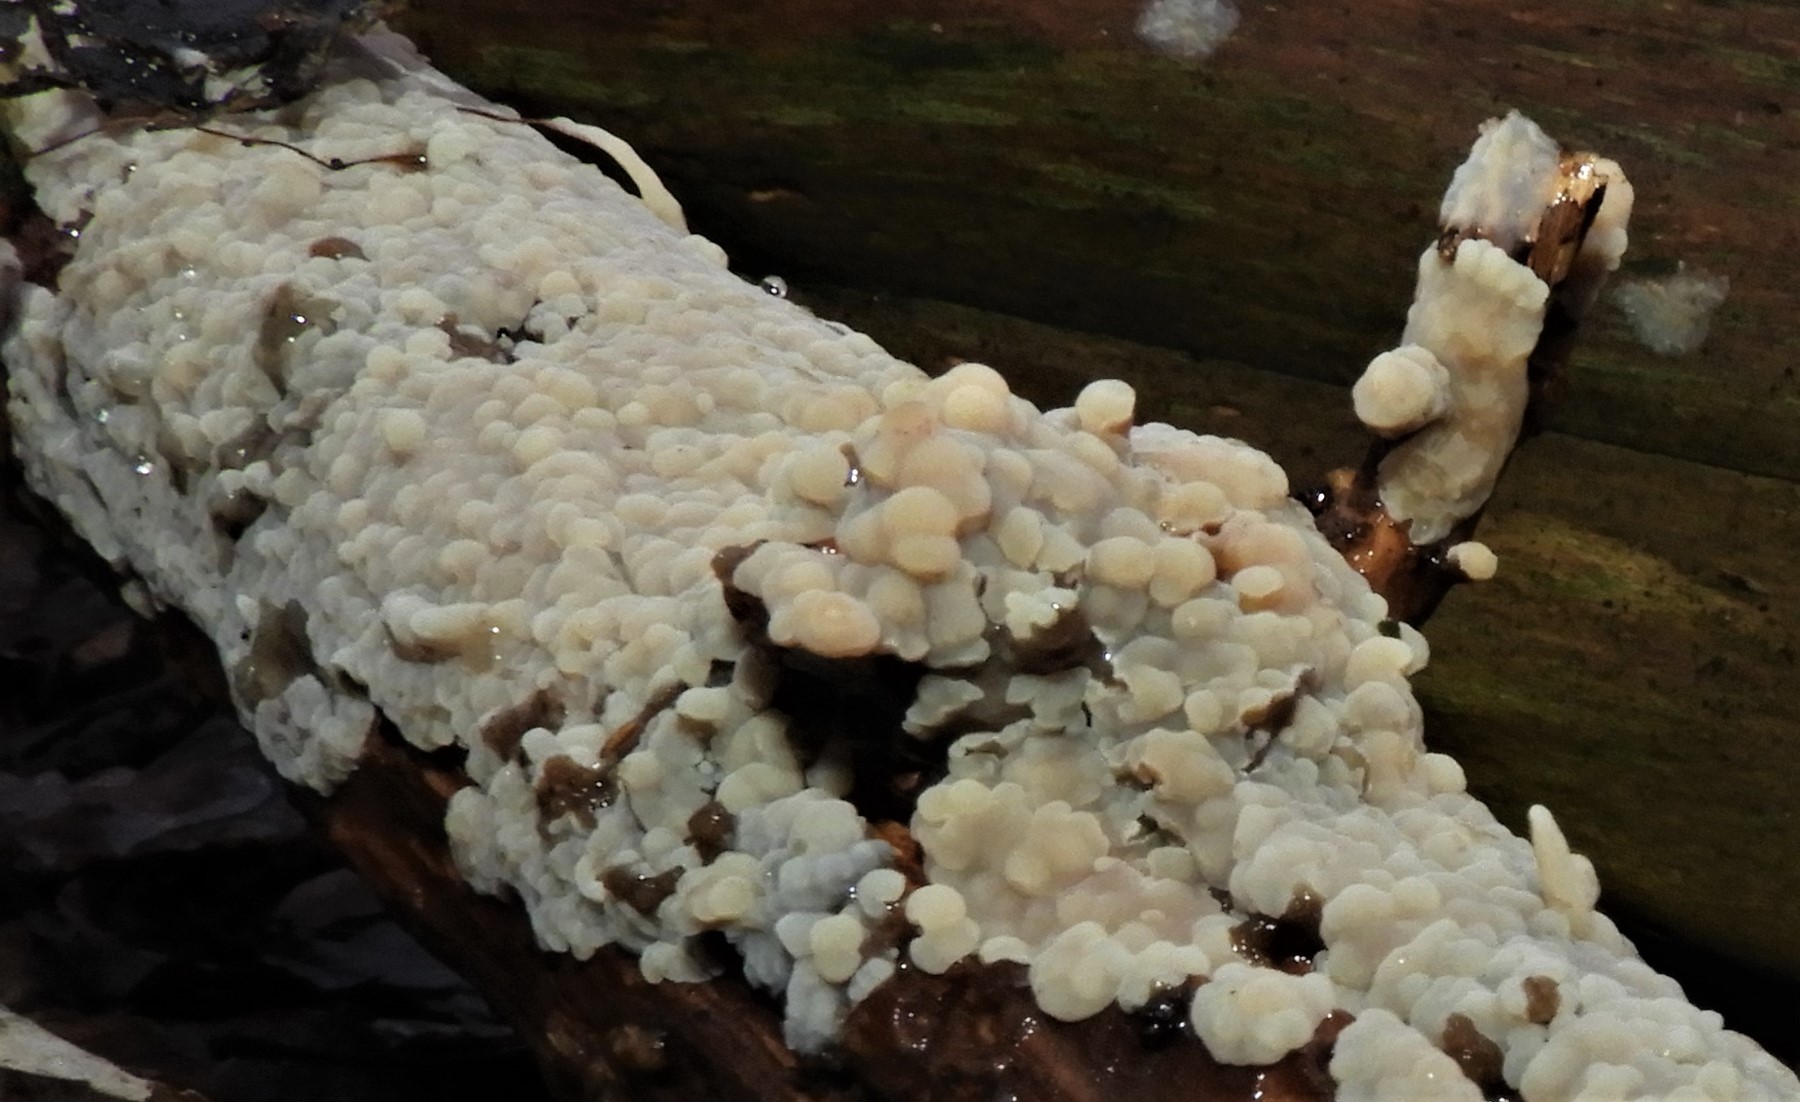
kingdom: Fungi
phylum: Basidiomycota
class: Agaricomycetes
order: Corticiales
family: Corticiaceae
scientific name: Corticiaceae
